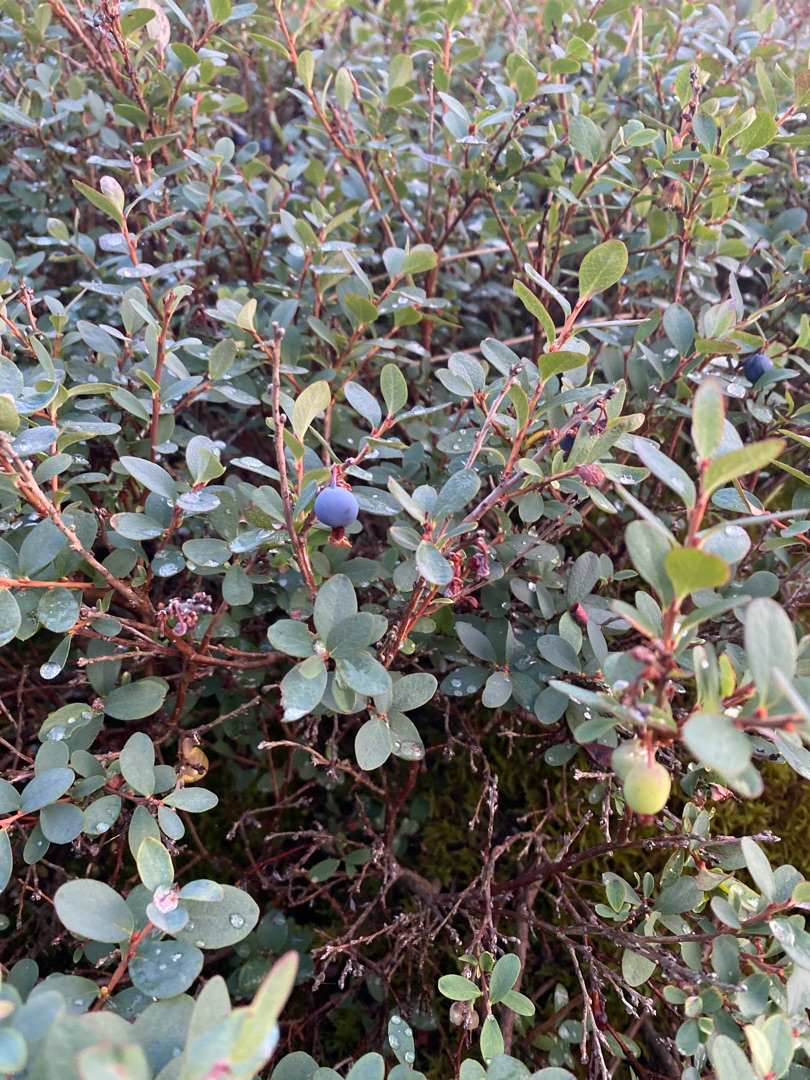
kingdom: Plantae
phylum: Tracheophyta
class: Magnoliopsida
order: Ericales
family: Ericaceae
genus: Vaccinium
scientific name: Vaccinium uliginosum
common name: Mose-bølle
